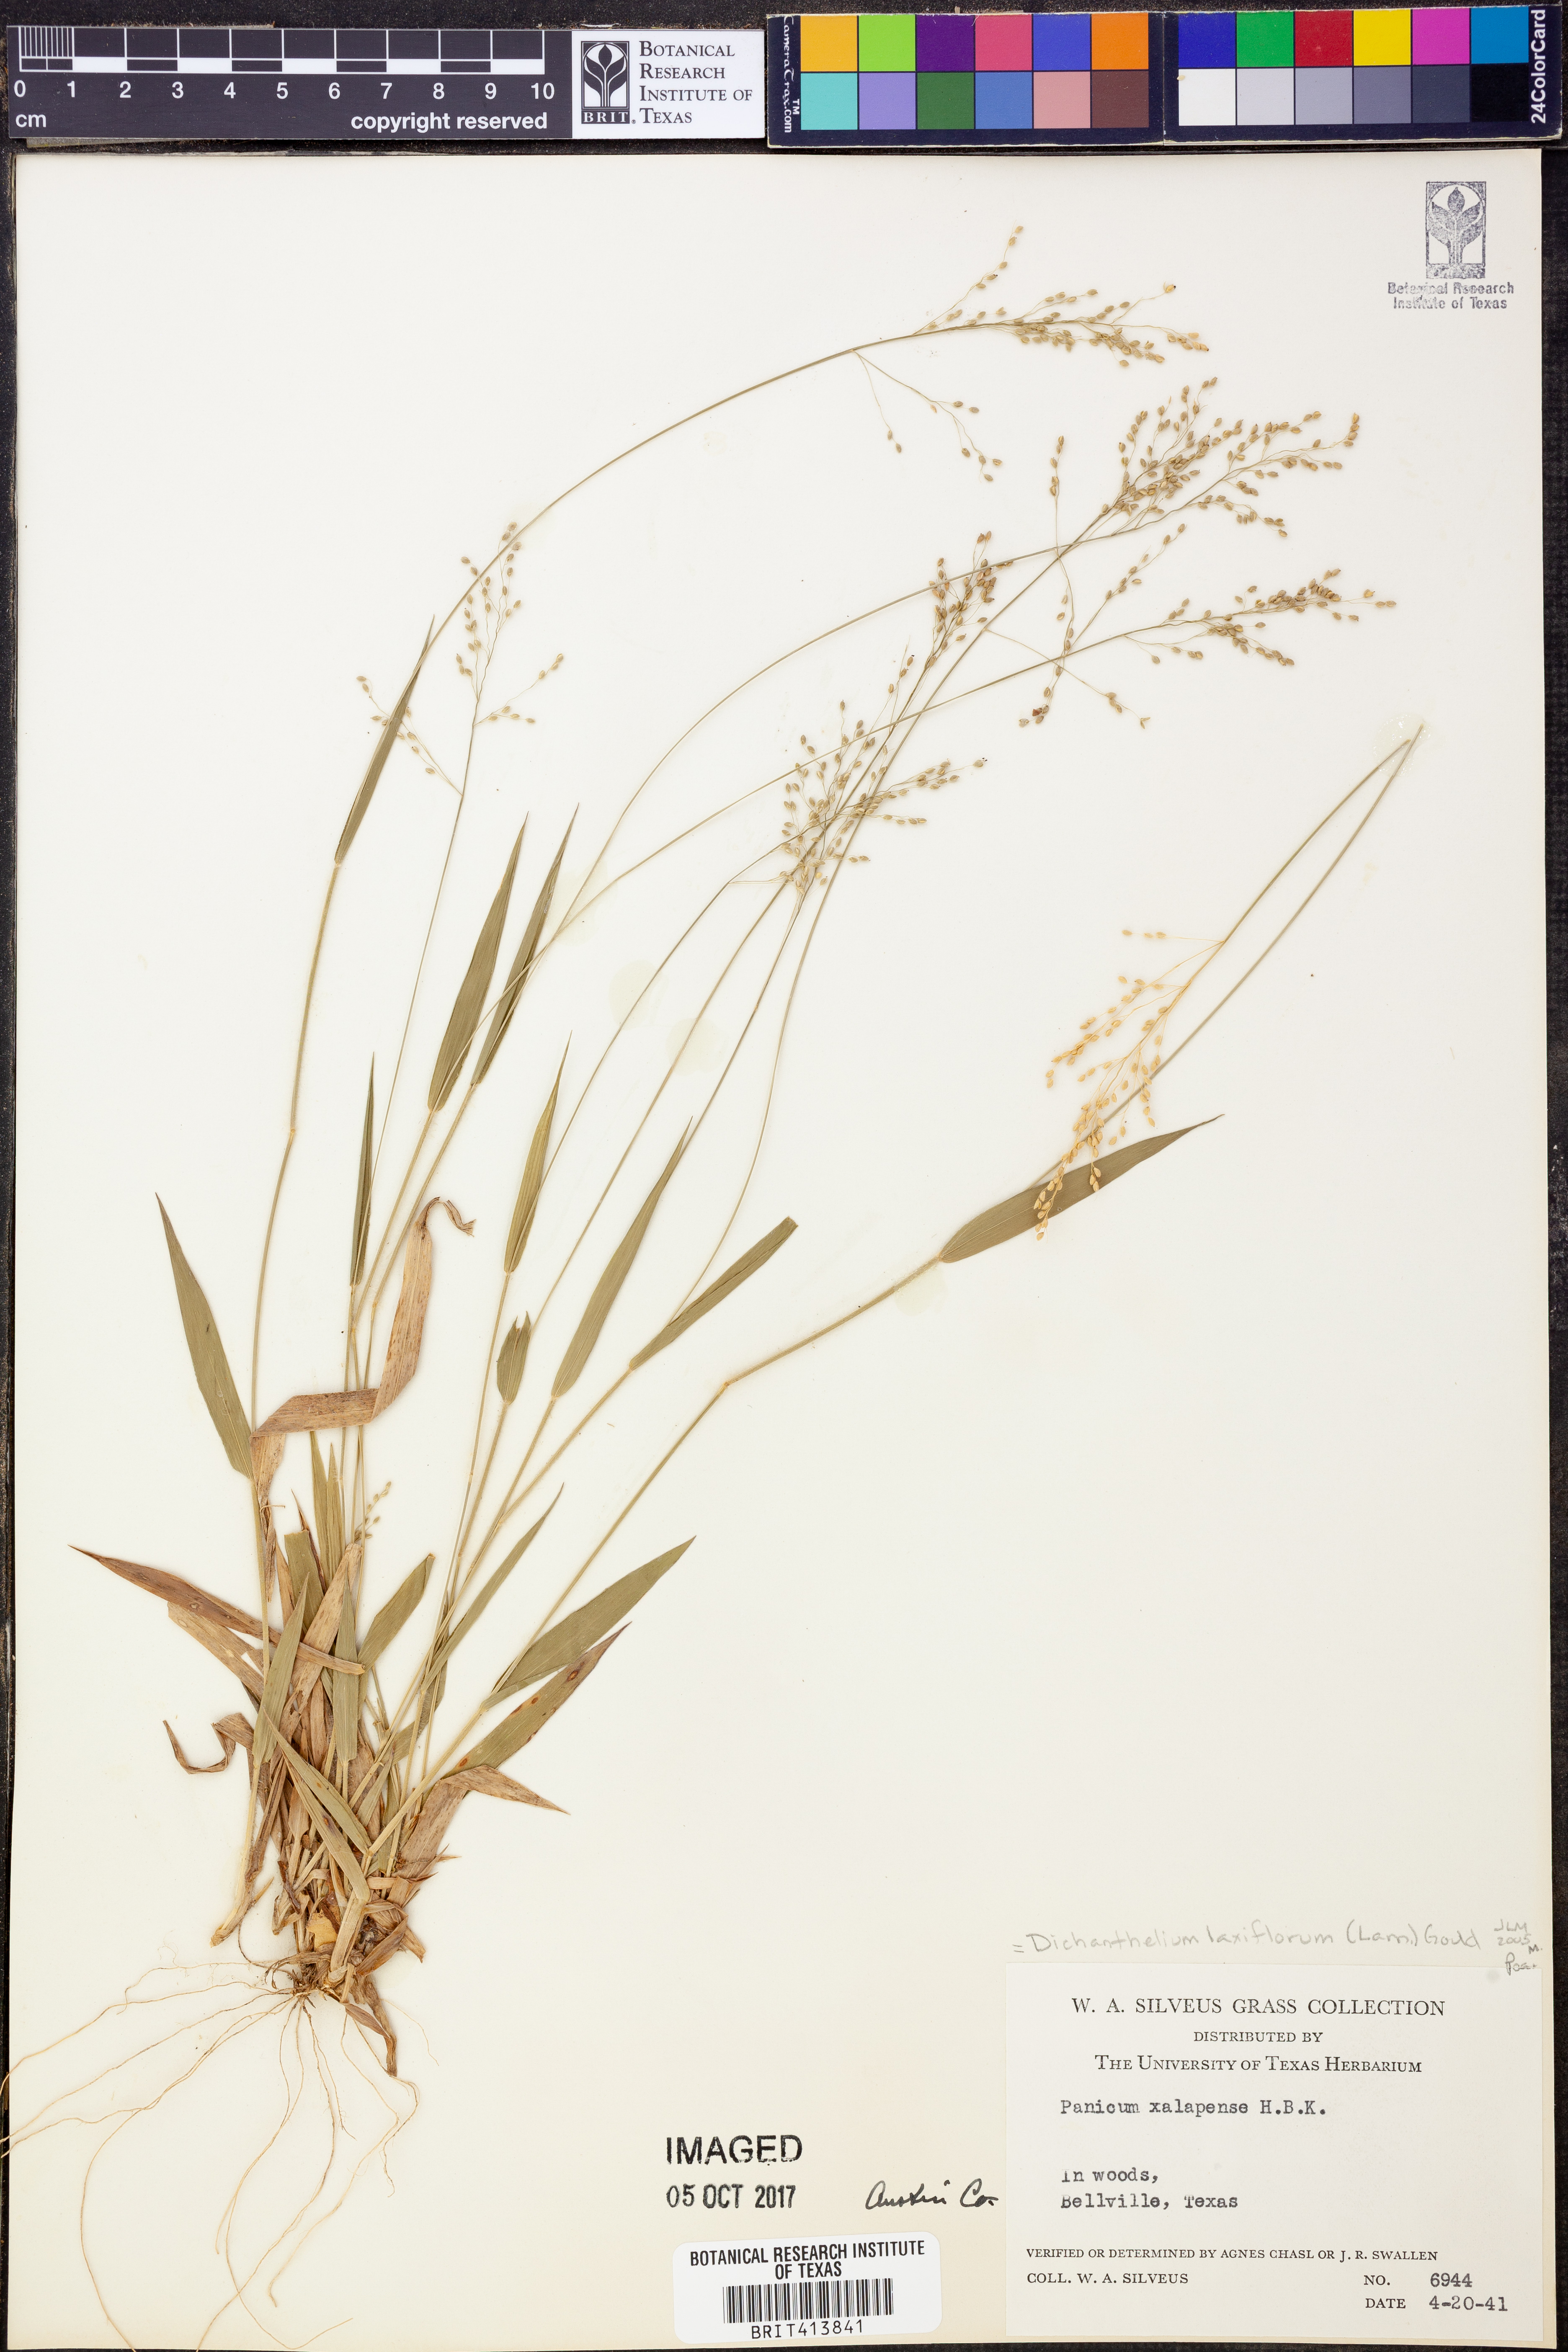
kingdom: Plantae
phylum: Tracheophyta
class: Liliopsida
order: Poales
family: Poaceae
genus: Dichanthelium
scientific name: Dichanthelium laxiflorum
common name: Soft-tuft panic grass
